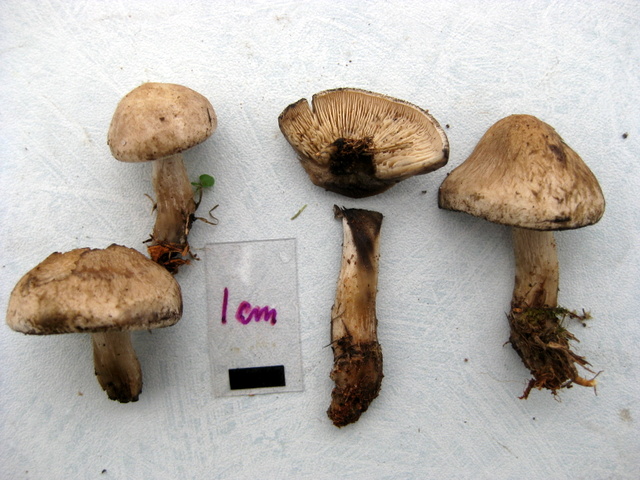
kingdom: Fungi
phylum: Basidiomycota
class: Agaricomycetes
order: Agaricales
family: Lyophyllaceae
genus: Calocybe
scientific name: Calocybe gangraenosa
